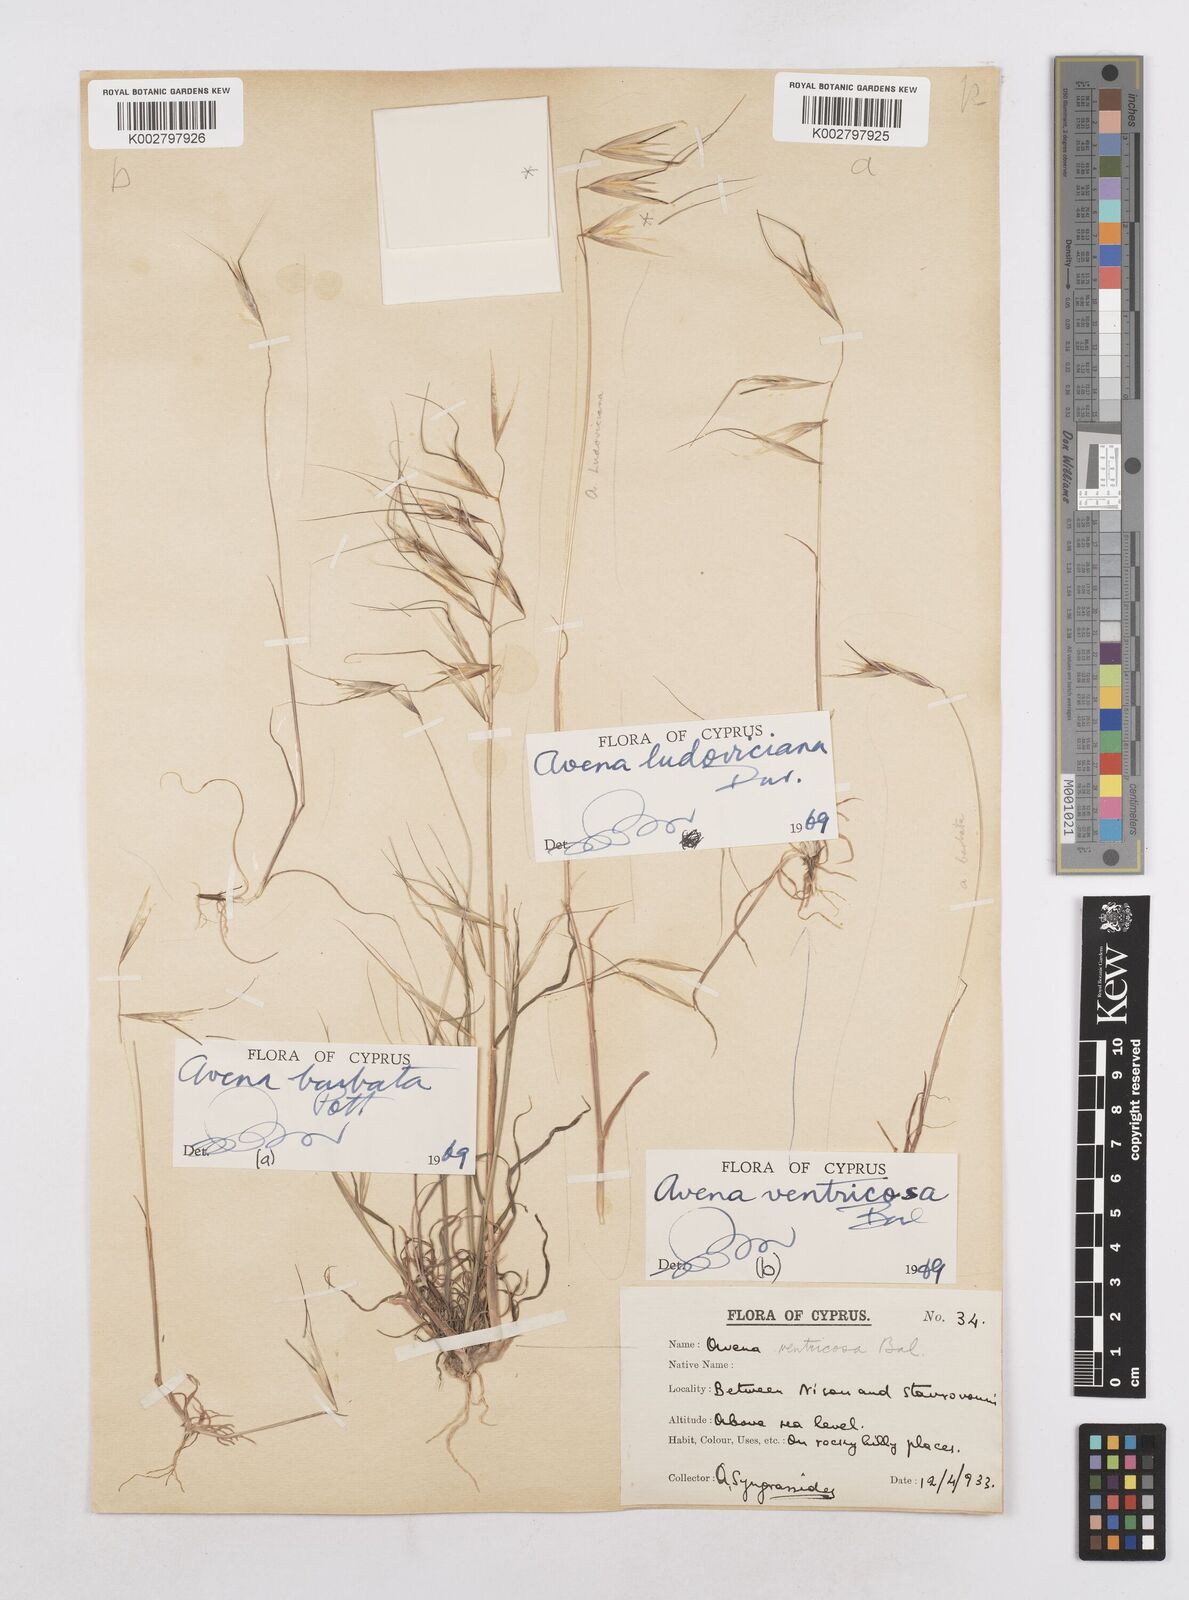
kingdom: Plantae
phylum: Tracheophyta
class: Liliopsida
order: Poales
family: Poaceae
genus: Avena
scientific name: Avena ventricosa
